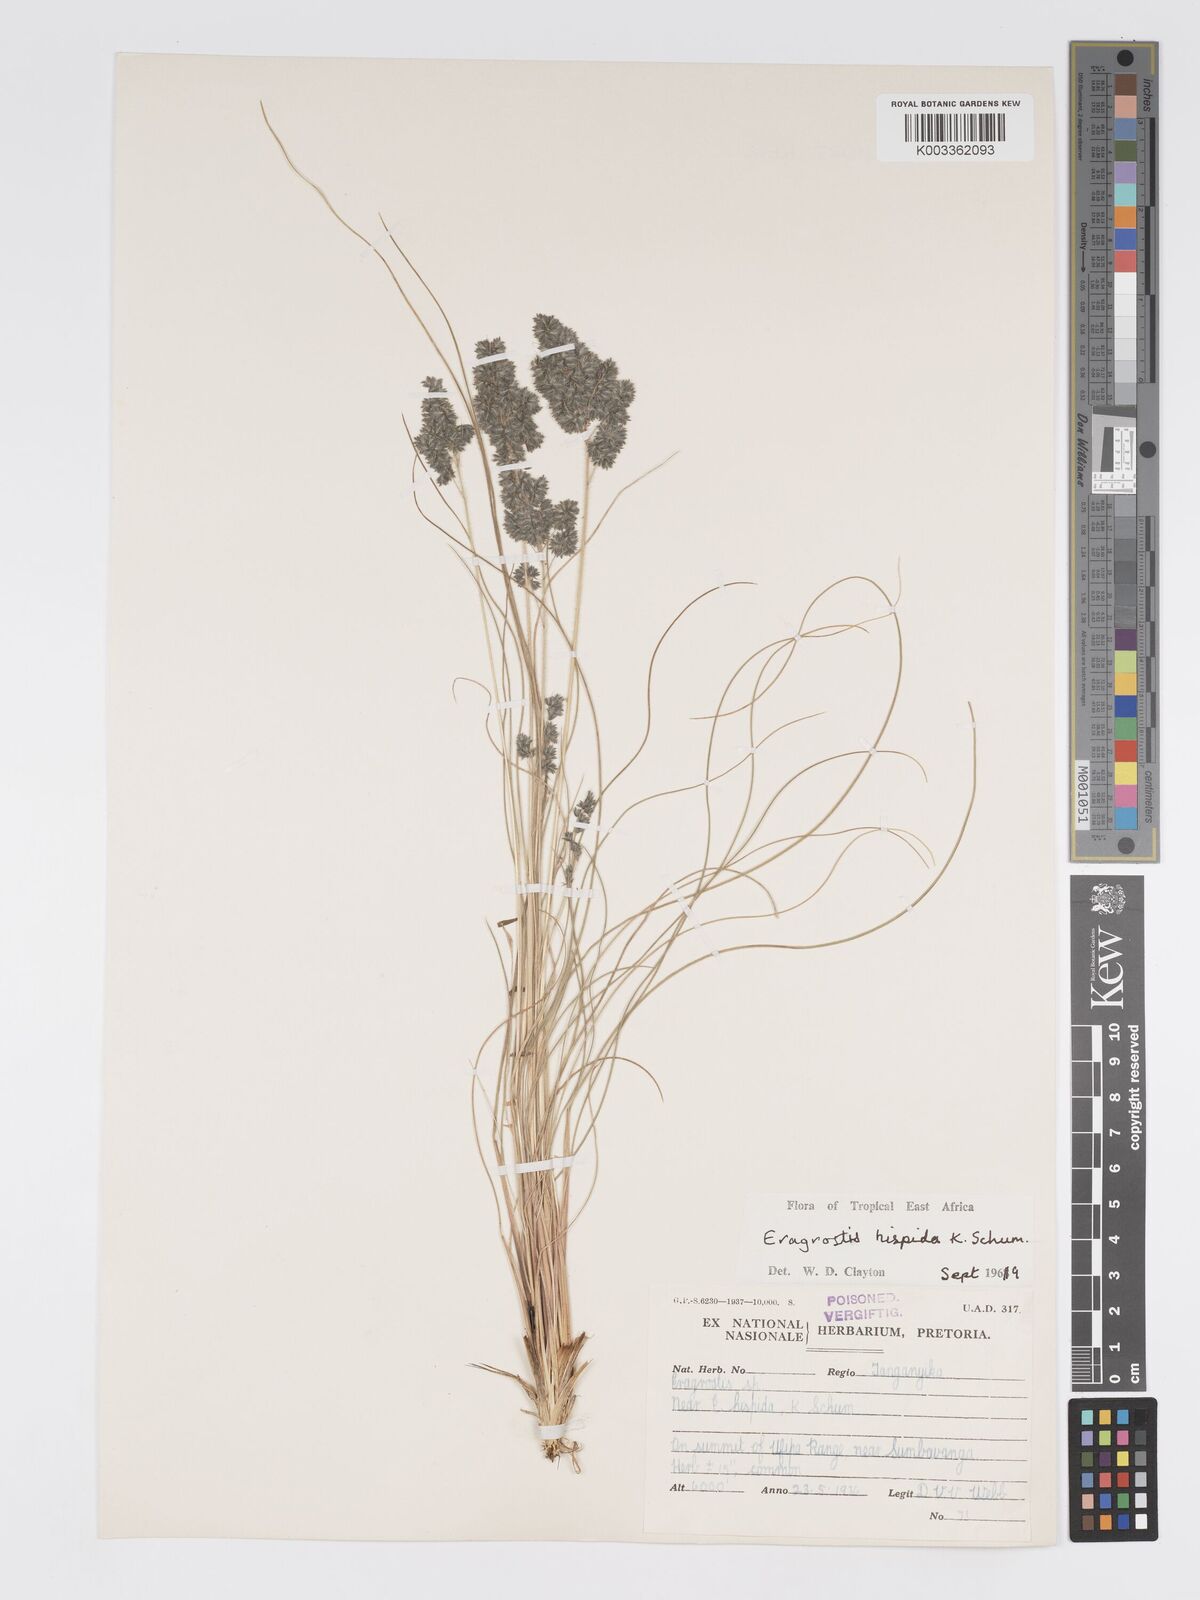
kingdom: Plantae
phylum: Tracheophyta
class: Liliopsida
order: Poales
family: Poaceae
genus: Eragrostis
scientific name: Eragrostis hispida
